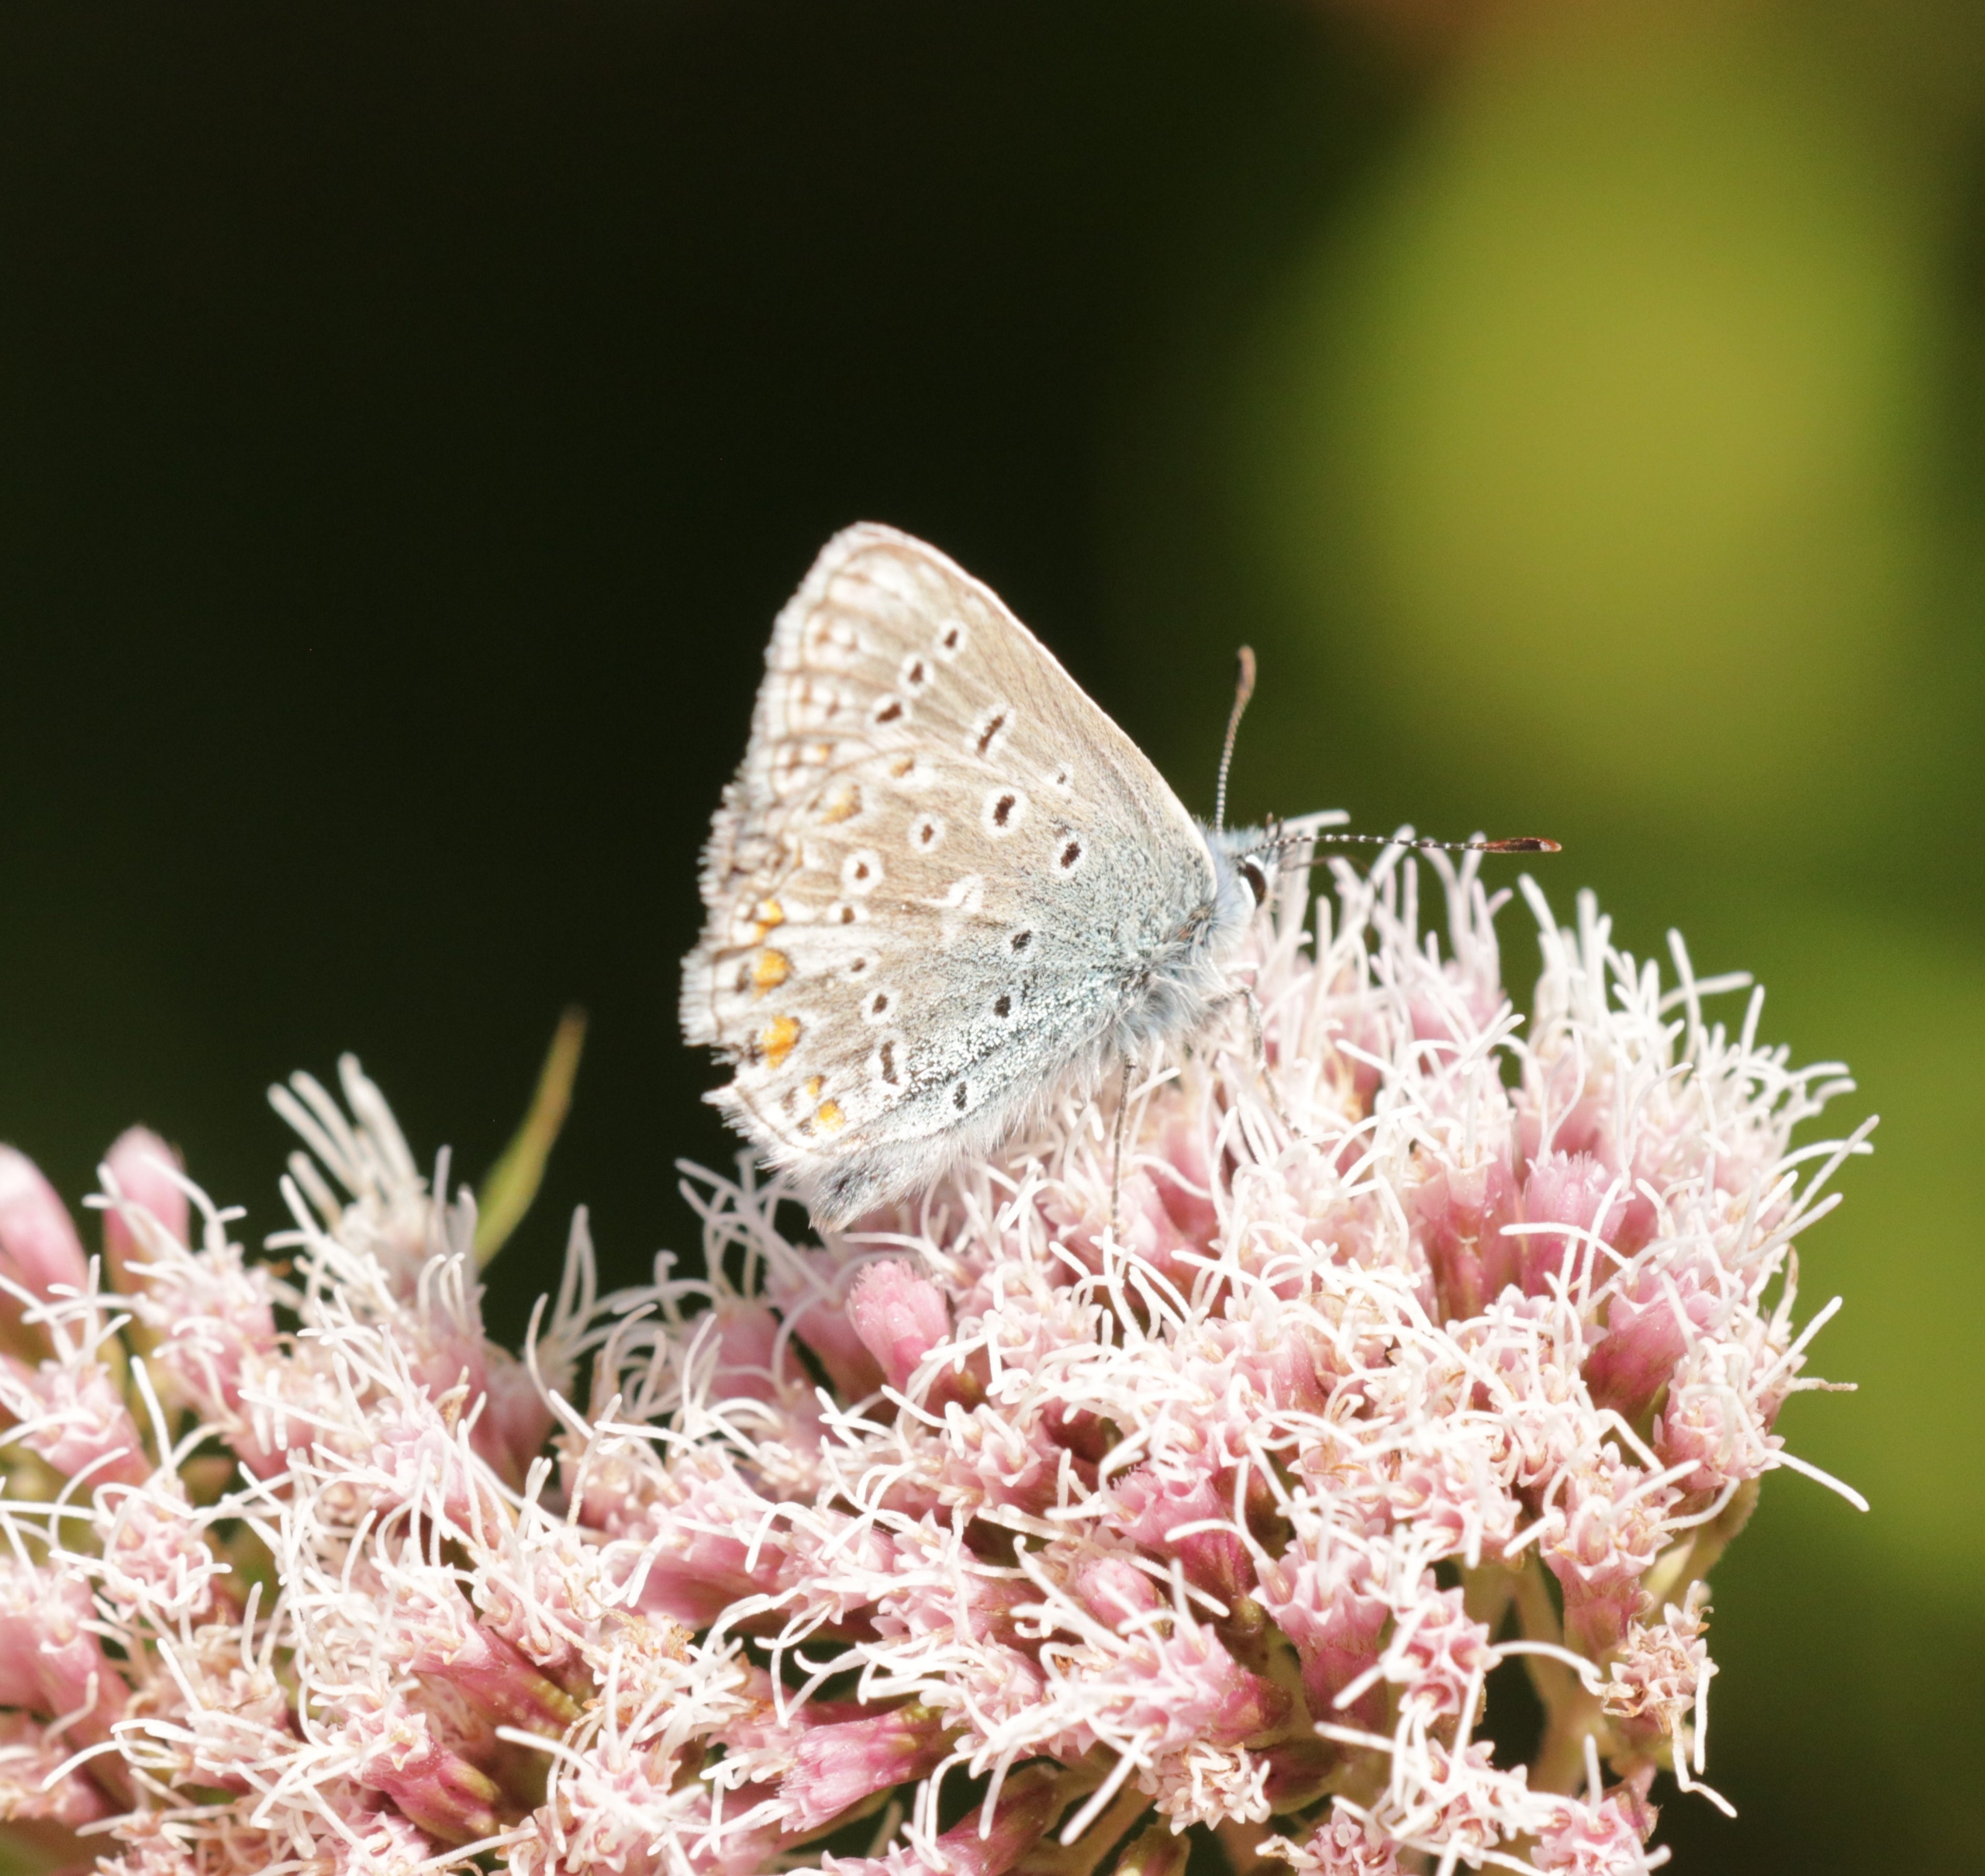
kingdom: Animalia
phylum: Arthropoda
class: Insecta
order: Lepidoptera
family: Lycaenidae
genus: Polyommatus
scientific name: Polyommatus icarus
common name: Almindelig blåfugl
